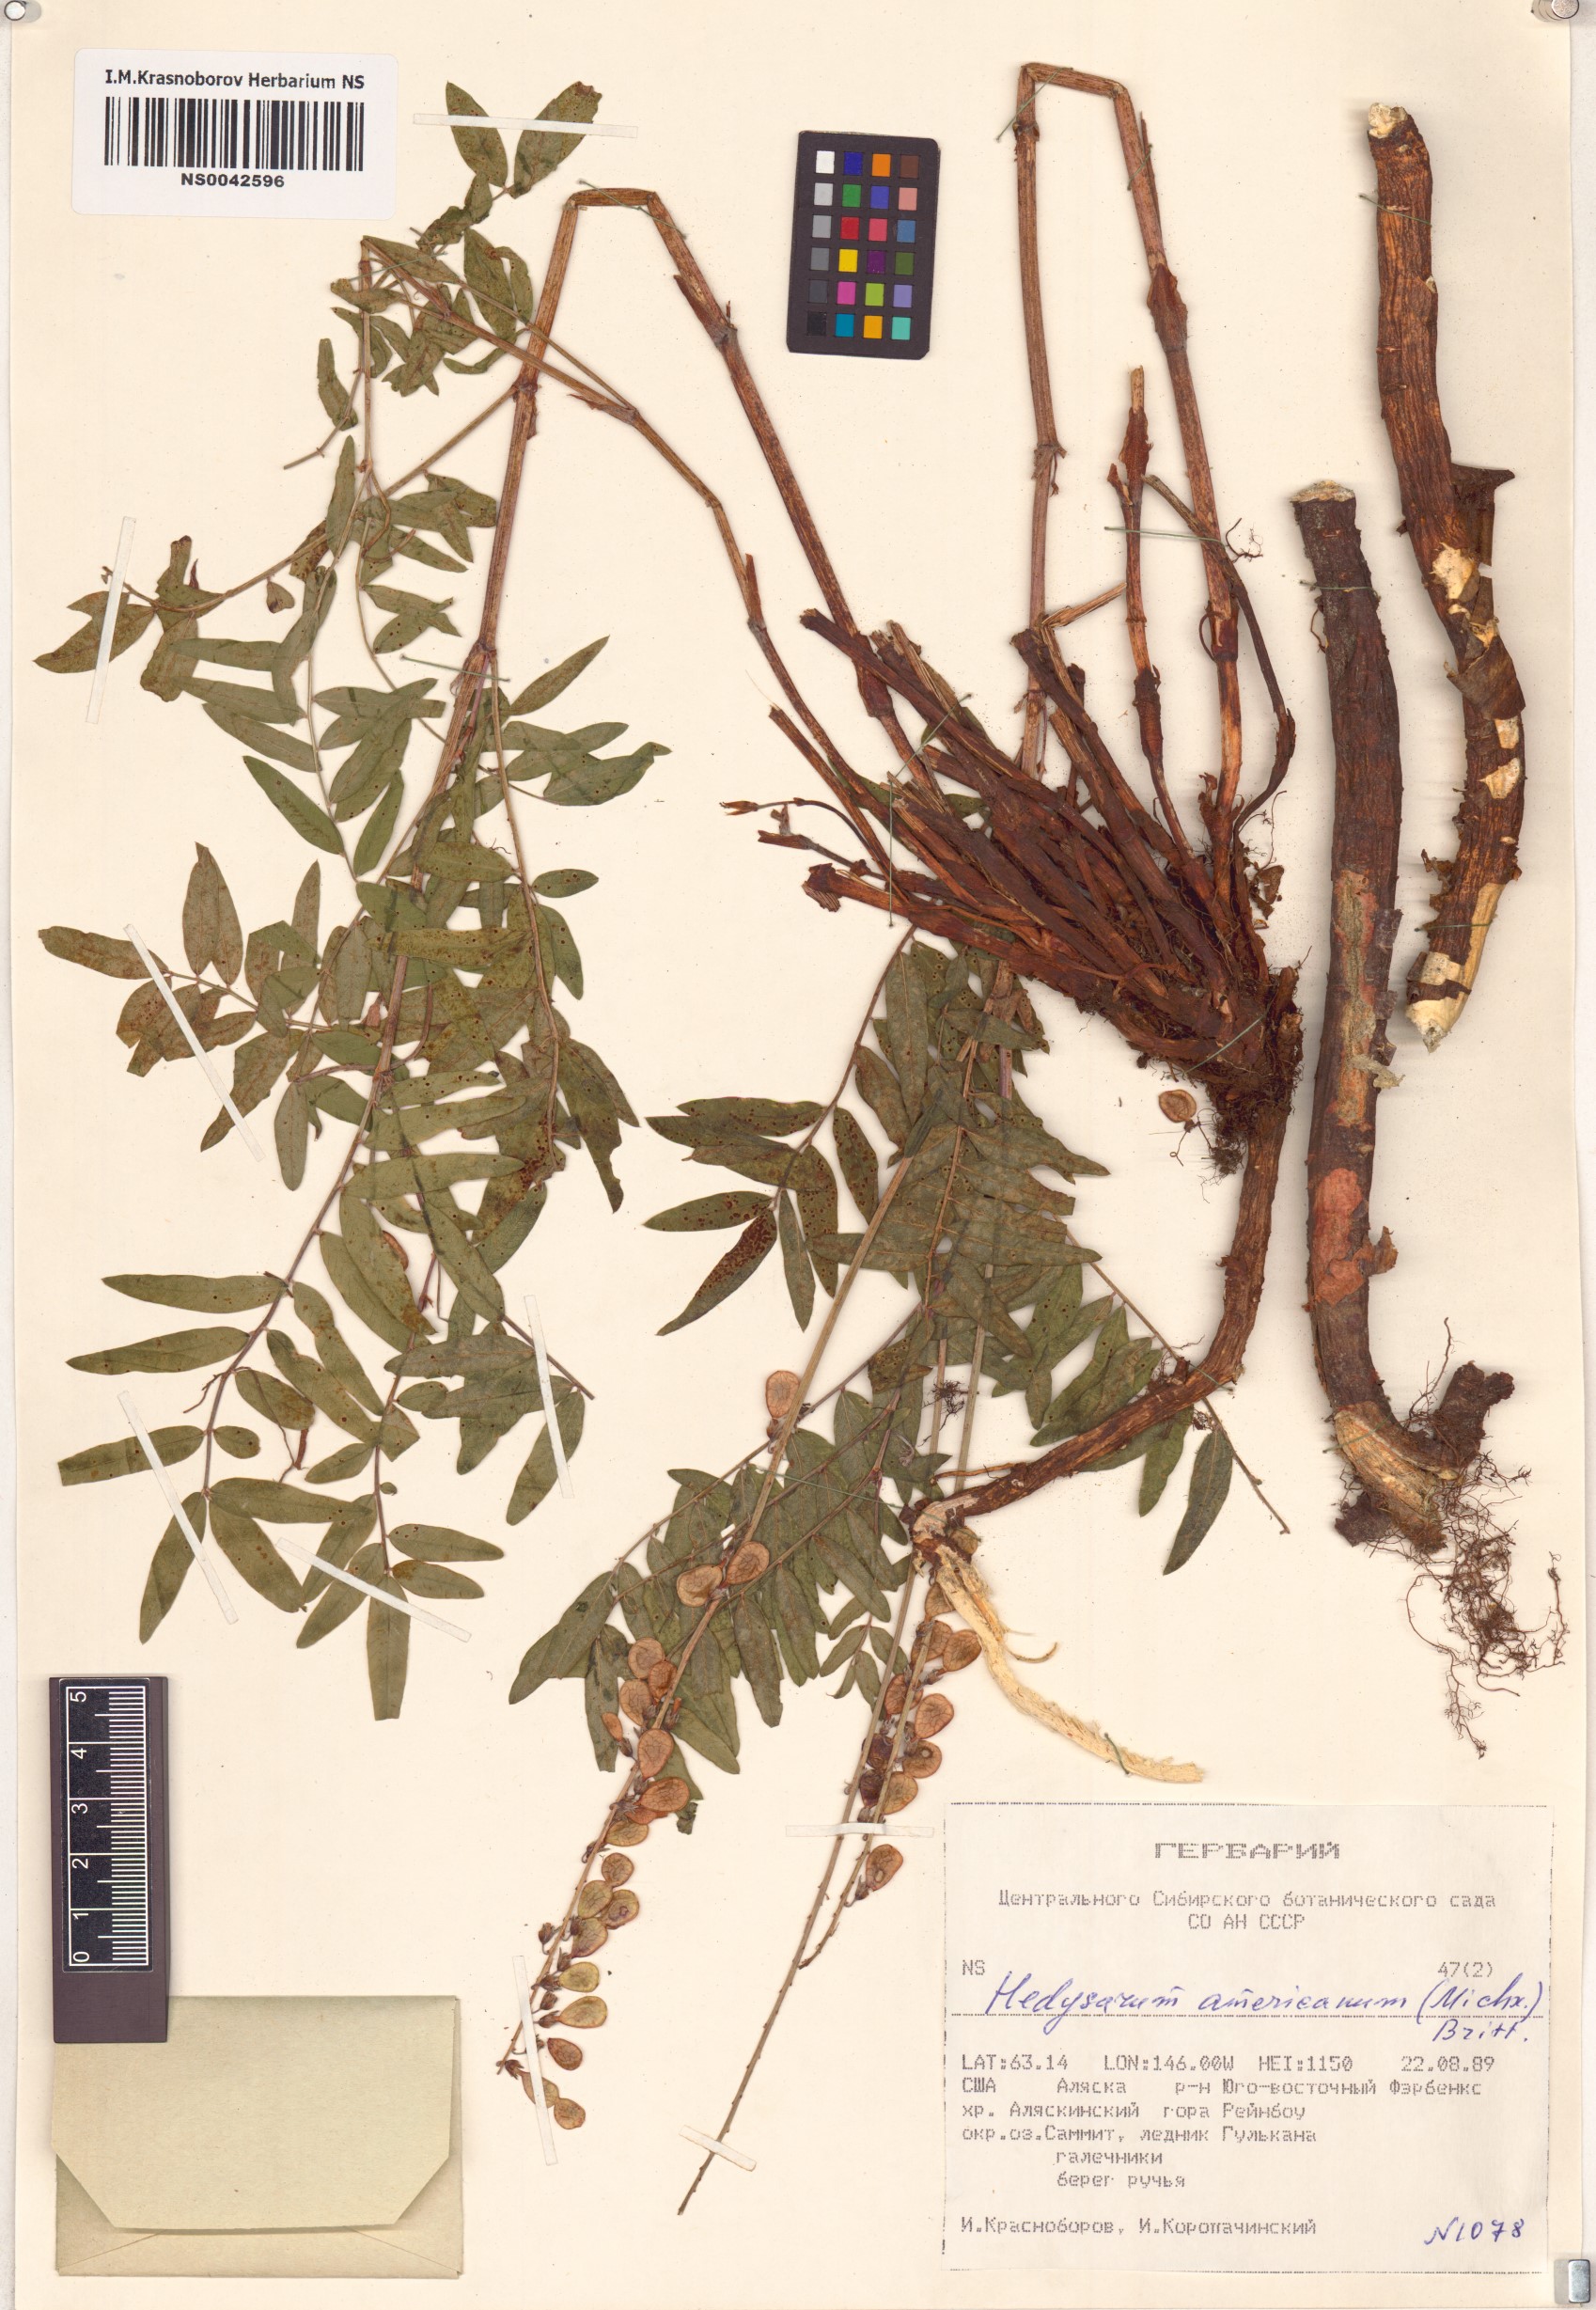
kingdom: Plantae
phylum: Tracheophyta
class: Magnoliopsida
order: Fabales
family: Fabaceae
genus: Hedysarum
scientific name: Hedysarum americanum
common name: Alpine hedysarum
